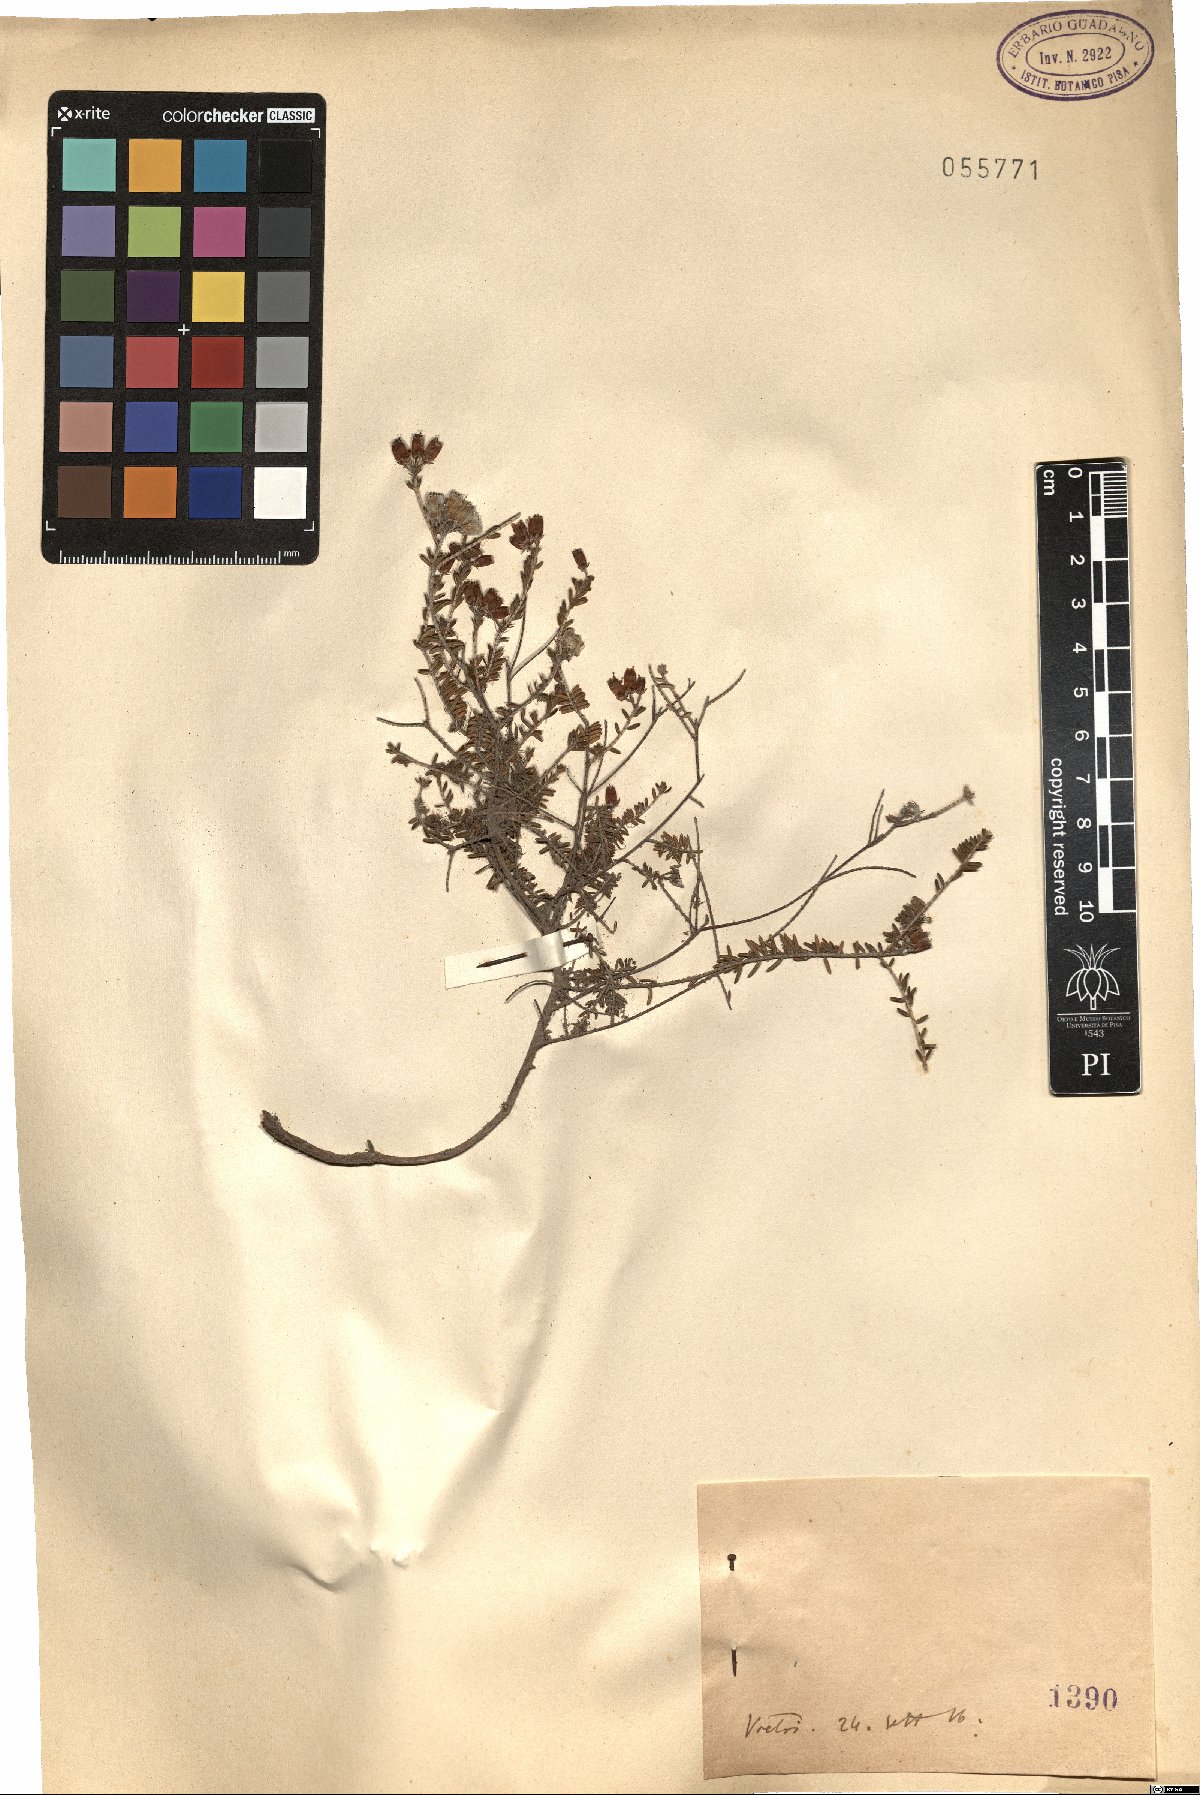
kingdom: Plantae
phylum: Tracheophyta
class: Magnoliopsida
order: Ericales
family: Ericaceae
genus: Erica
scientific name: Erica
